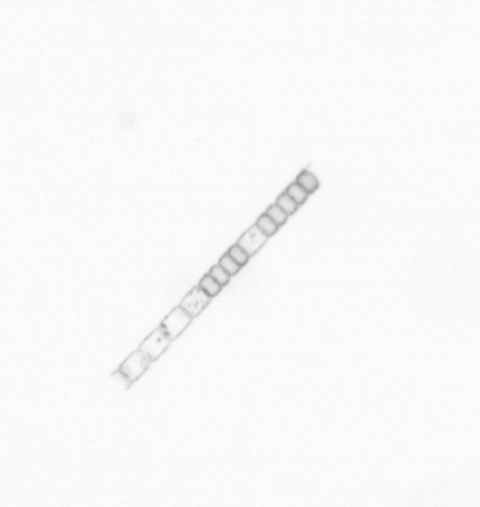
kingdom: Chromista
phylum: Ochrophyta
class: Bacillariophyceae
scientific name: Bacillariophyceae
